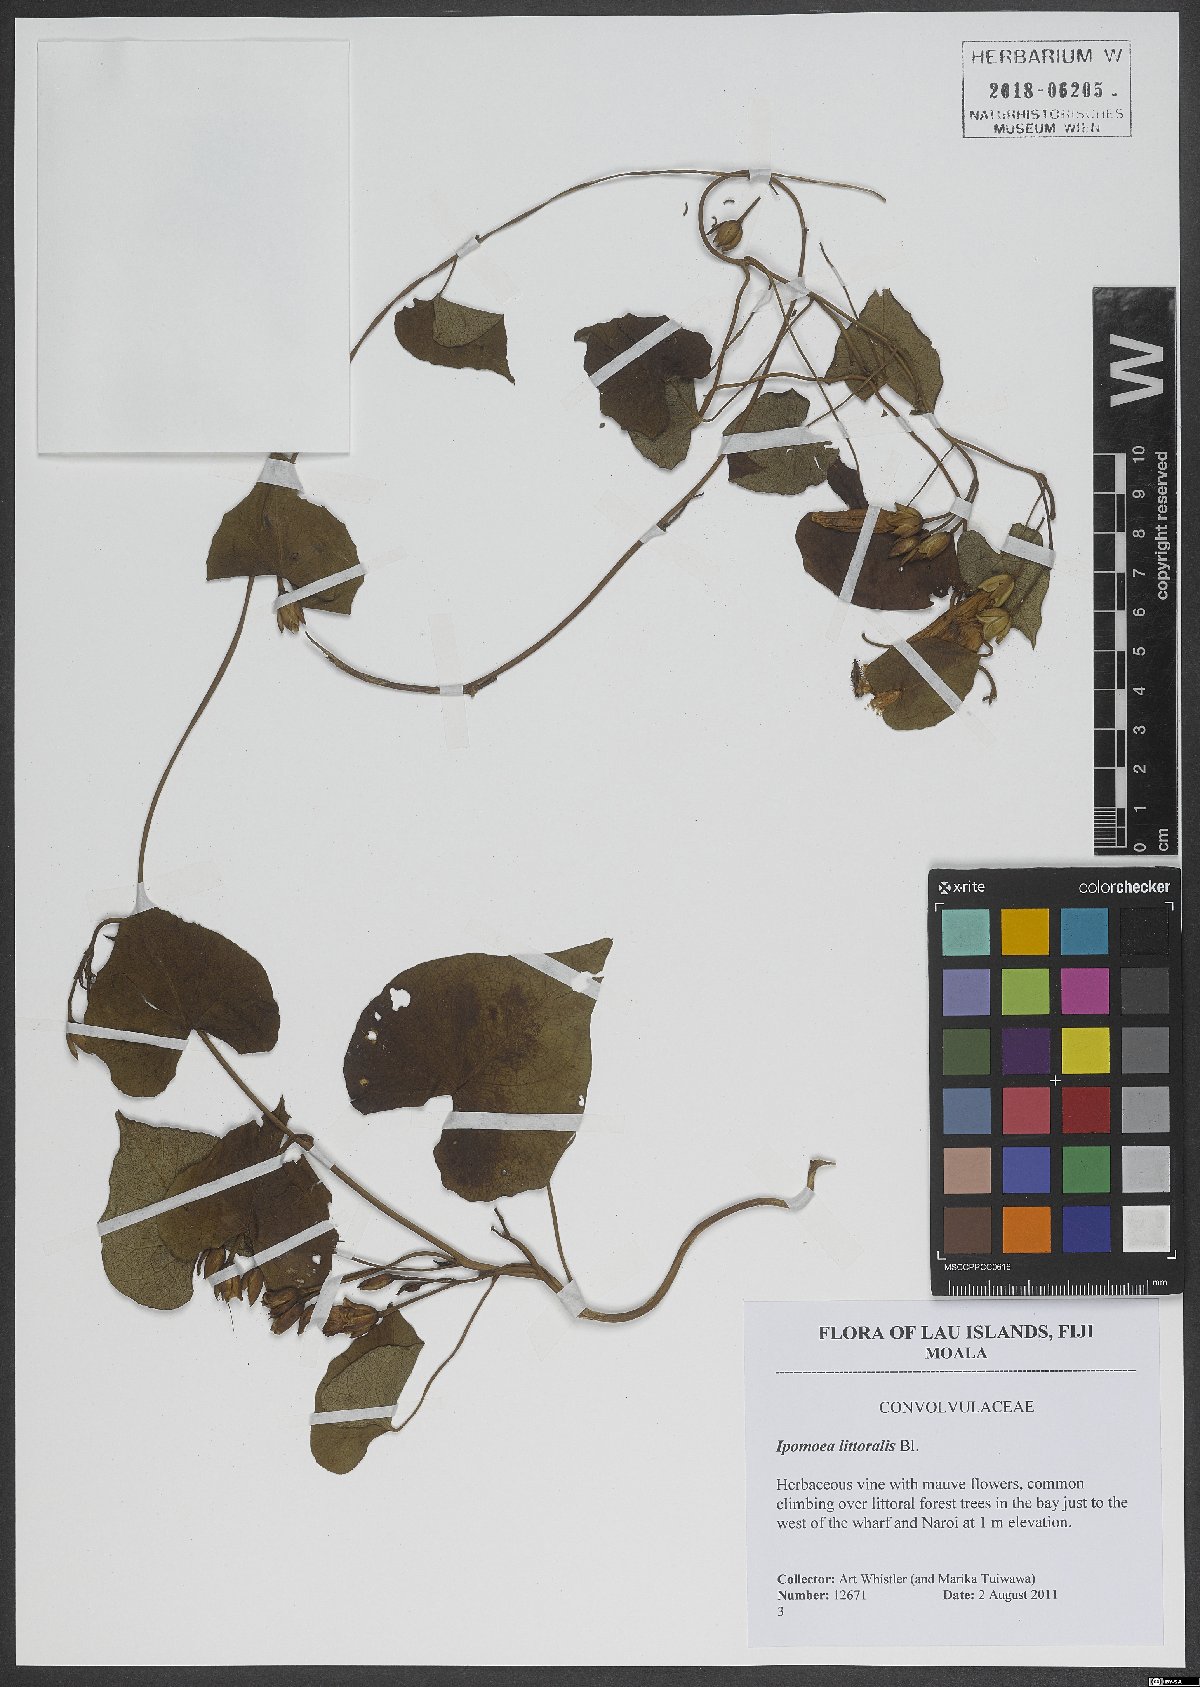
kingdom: Plantae
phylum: Tracheophyta
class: Magnoliopsida
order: Solanales
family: Convolvulaceae
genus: Ipomoea
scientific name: Ipomoea imperati
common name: Fiddle-leaf morning-glory
